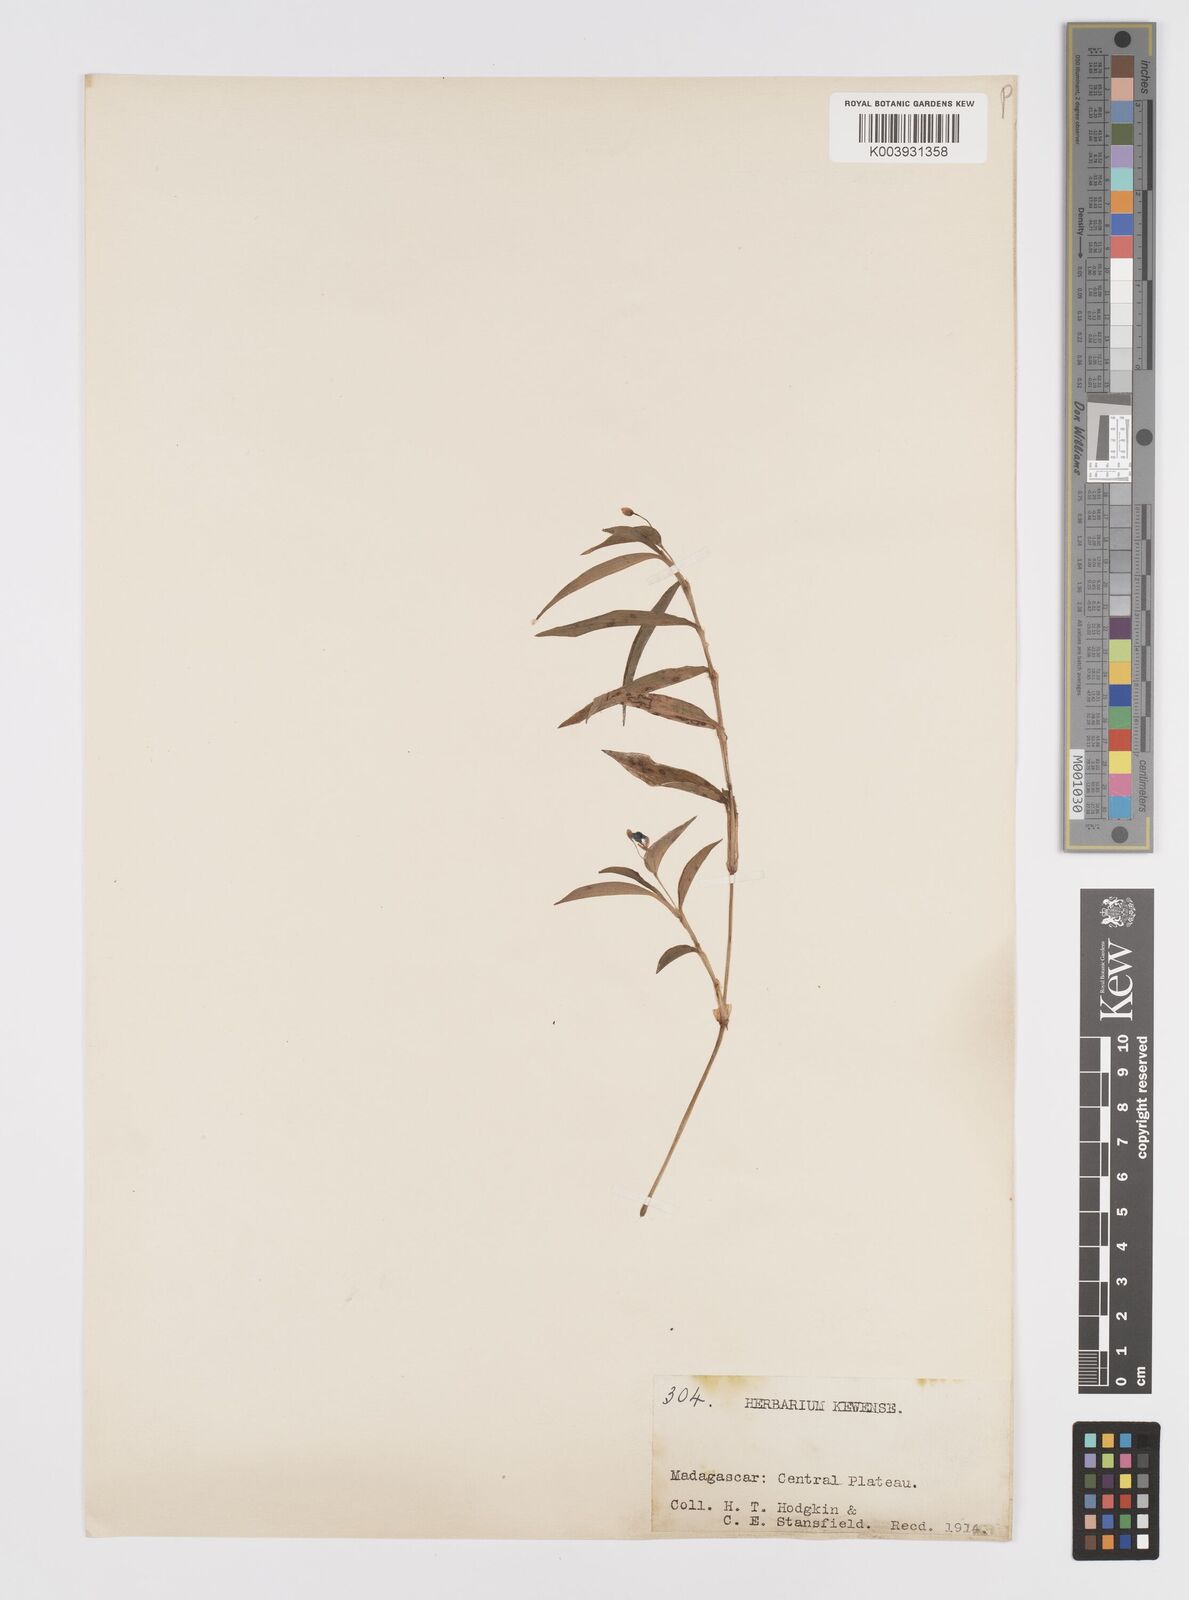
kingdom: Plantae
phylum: Tracheophyta
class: Liliopsida
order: Commelinales
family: Commelinaceae
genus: Murdannia
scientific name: Murdannia nudiflora
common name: Nakedstem dewflower
